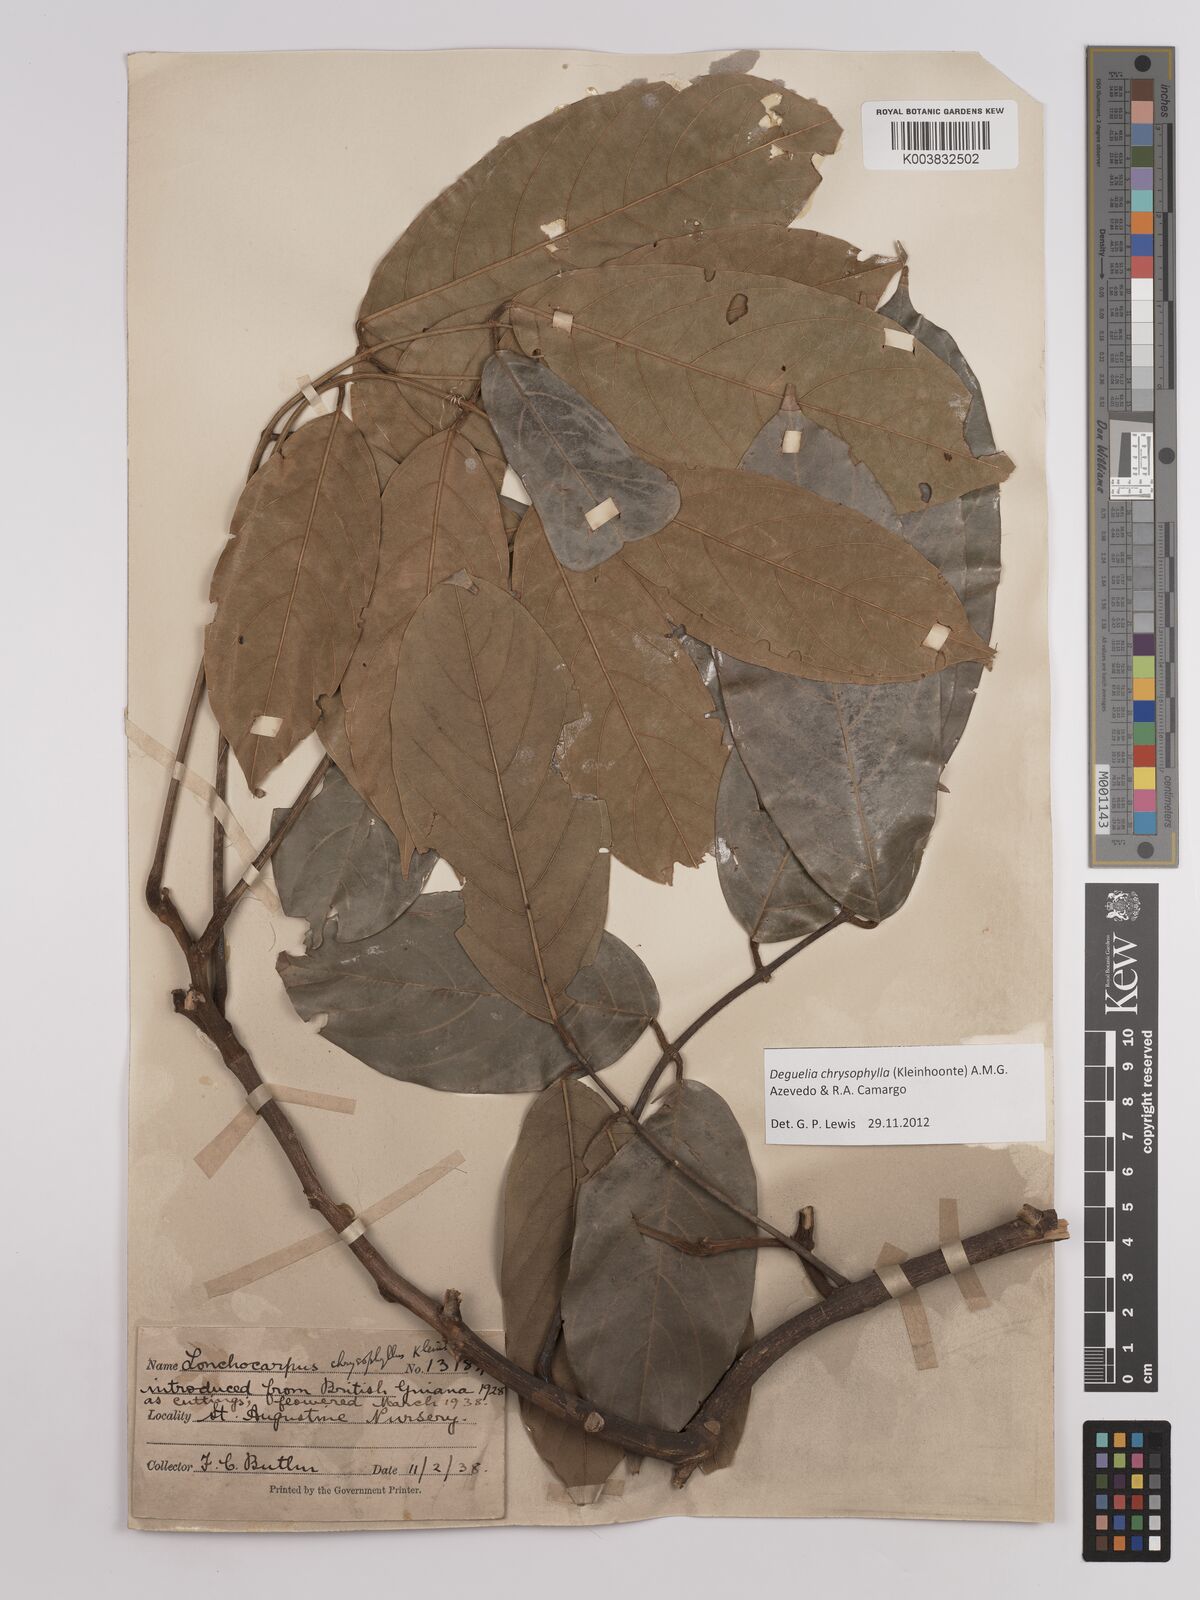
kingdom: Plantae
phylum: Tracheophyta
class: Magnoliopsida
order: Fabales
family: Fabaceae
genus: Deguelia
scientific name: Deguelia chrysophylla
